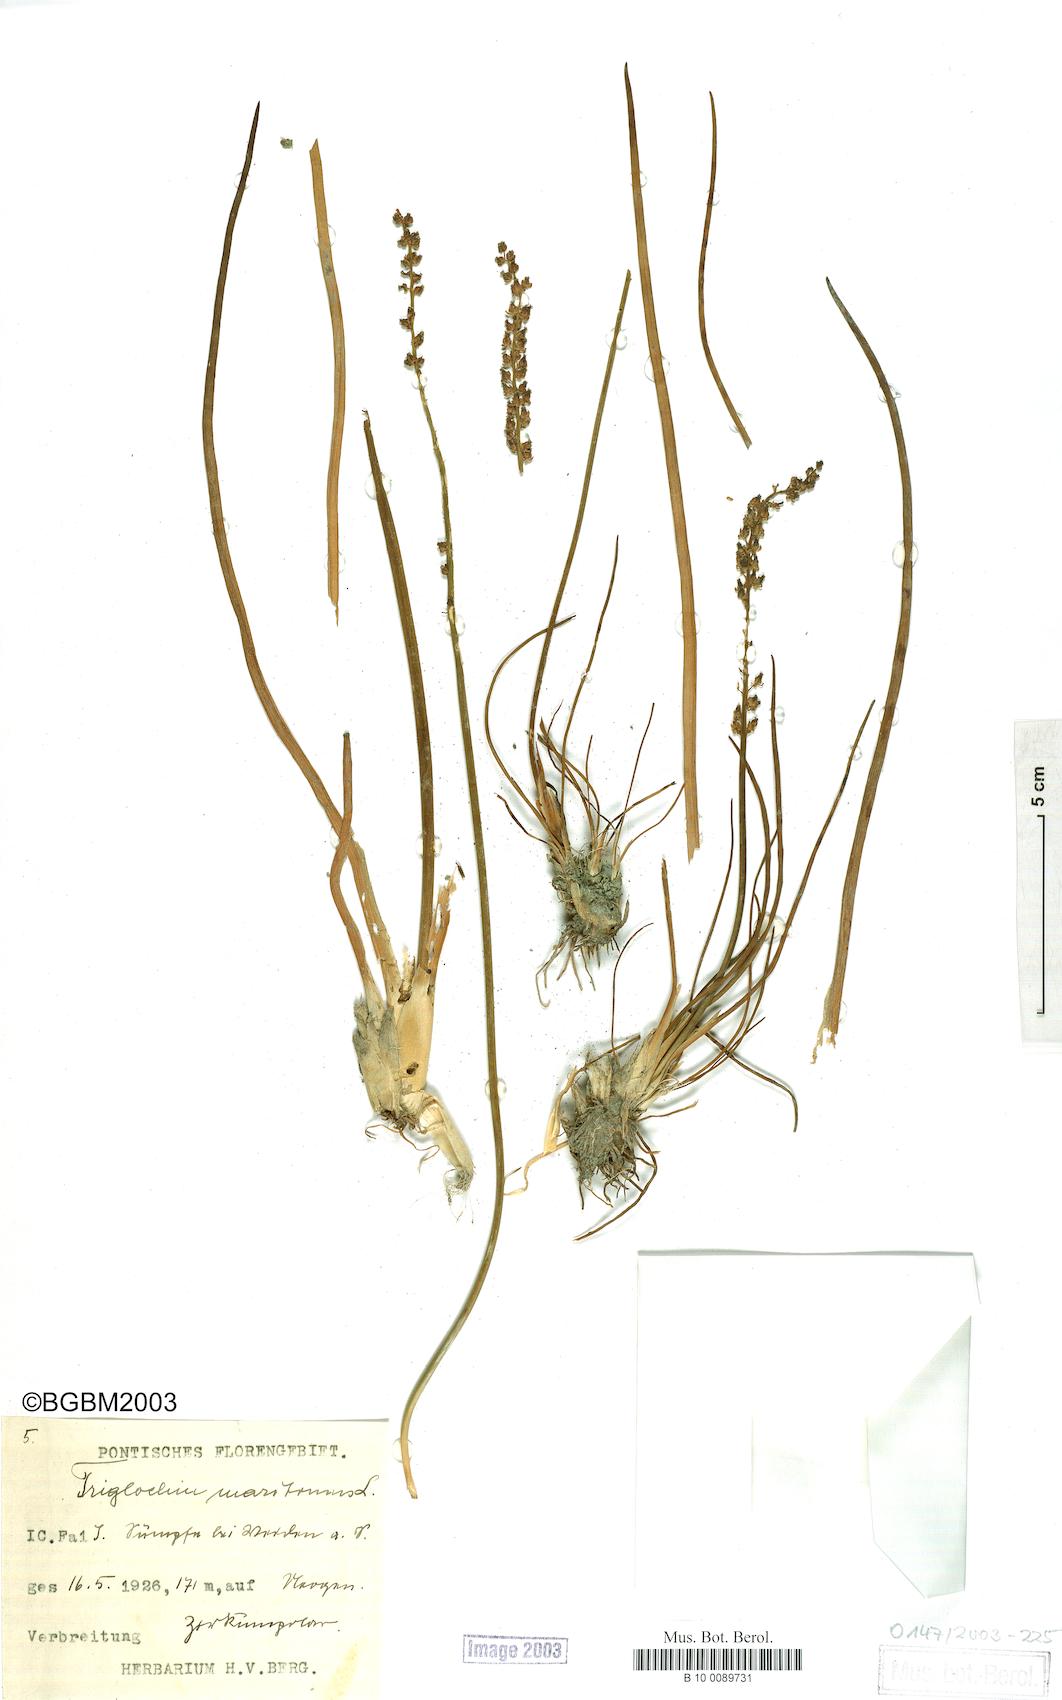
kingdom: Plantae
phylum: Tracheophyta
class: Liliopsida
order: Alismatales
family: Juncaginaceae
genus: Triglochin
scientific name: Triglochin maritima
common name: Sea arrowgrass
